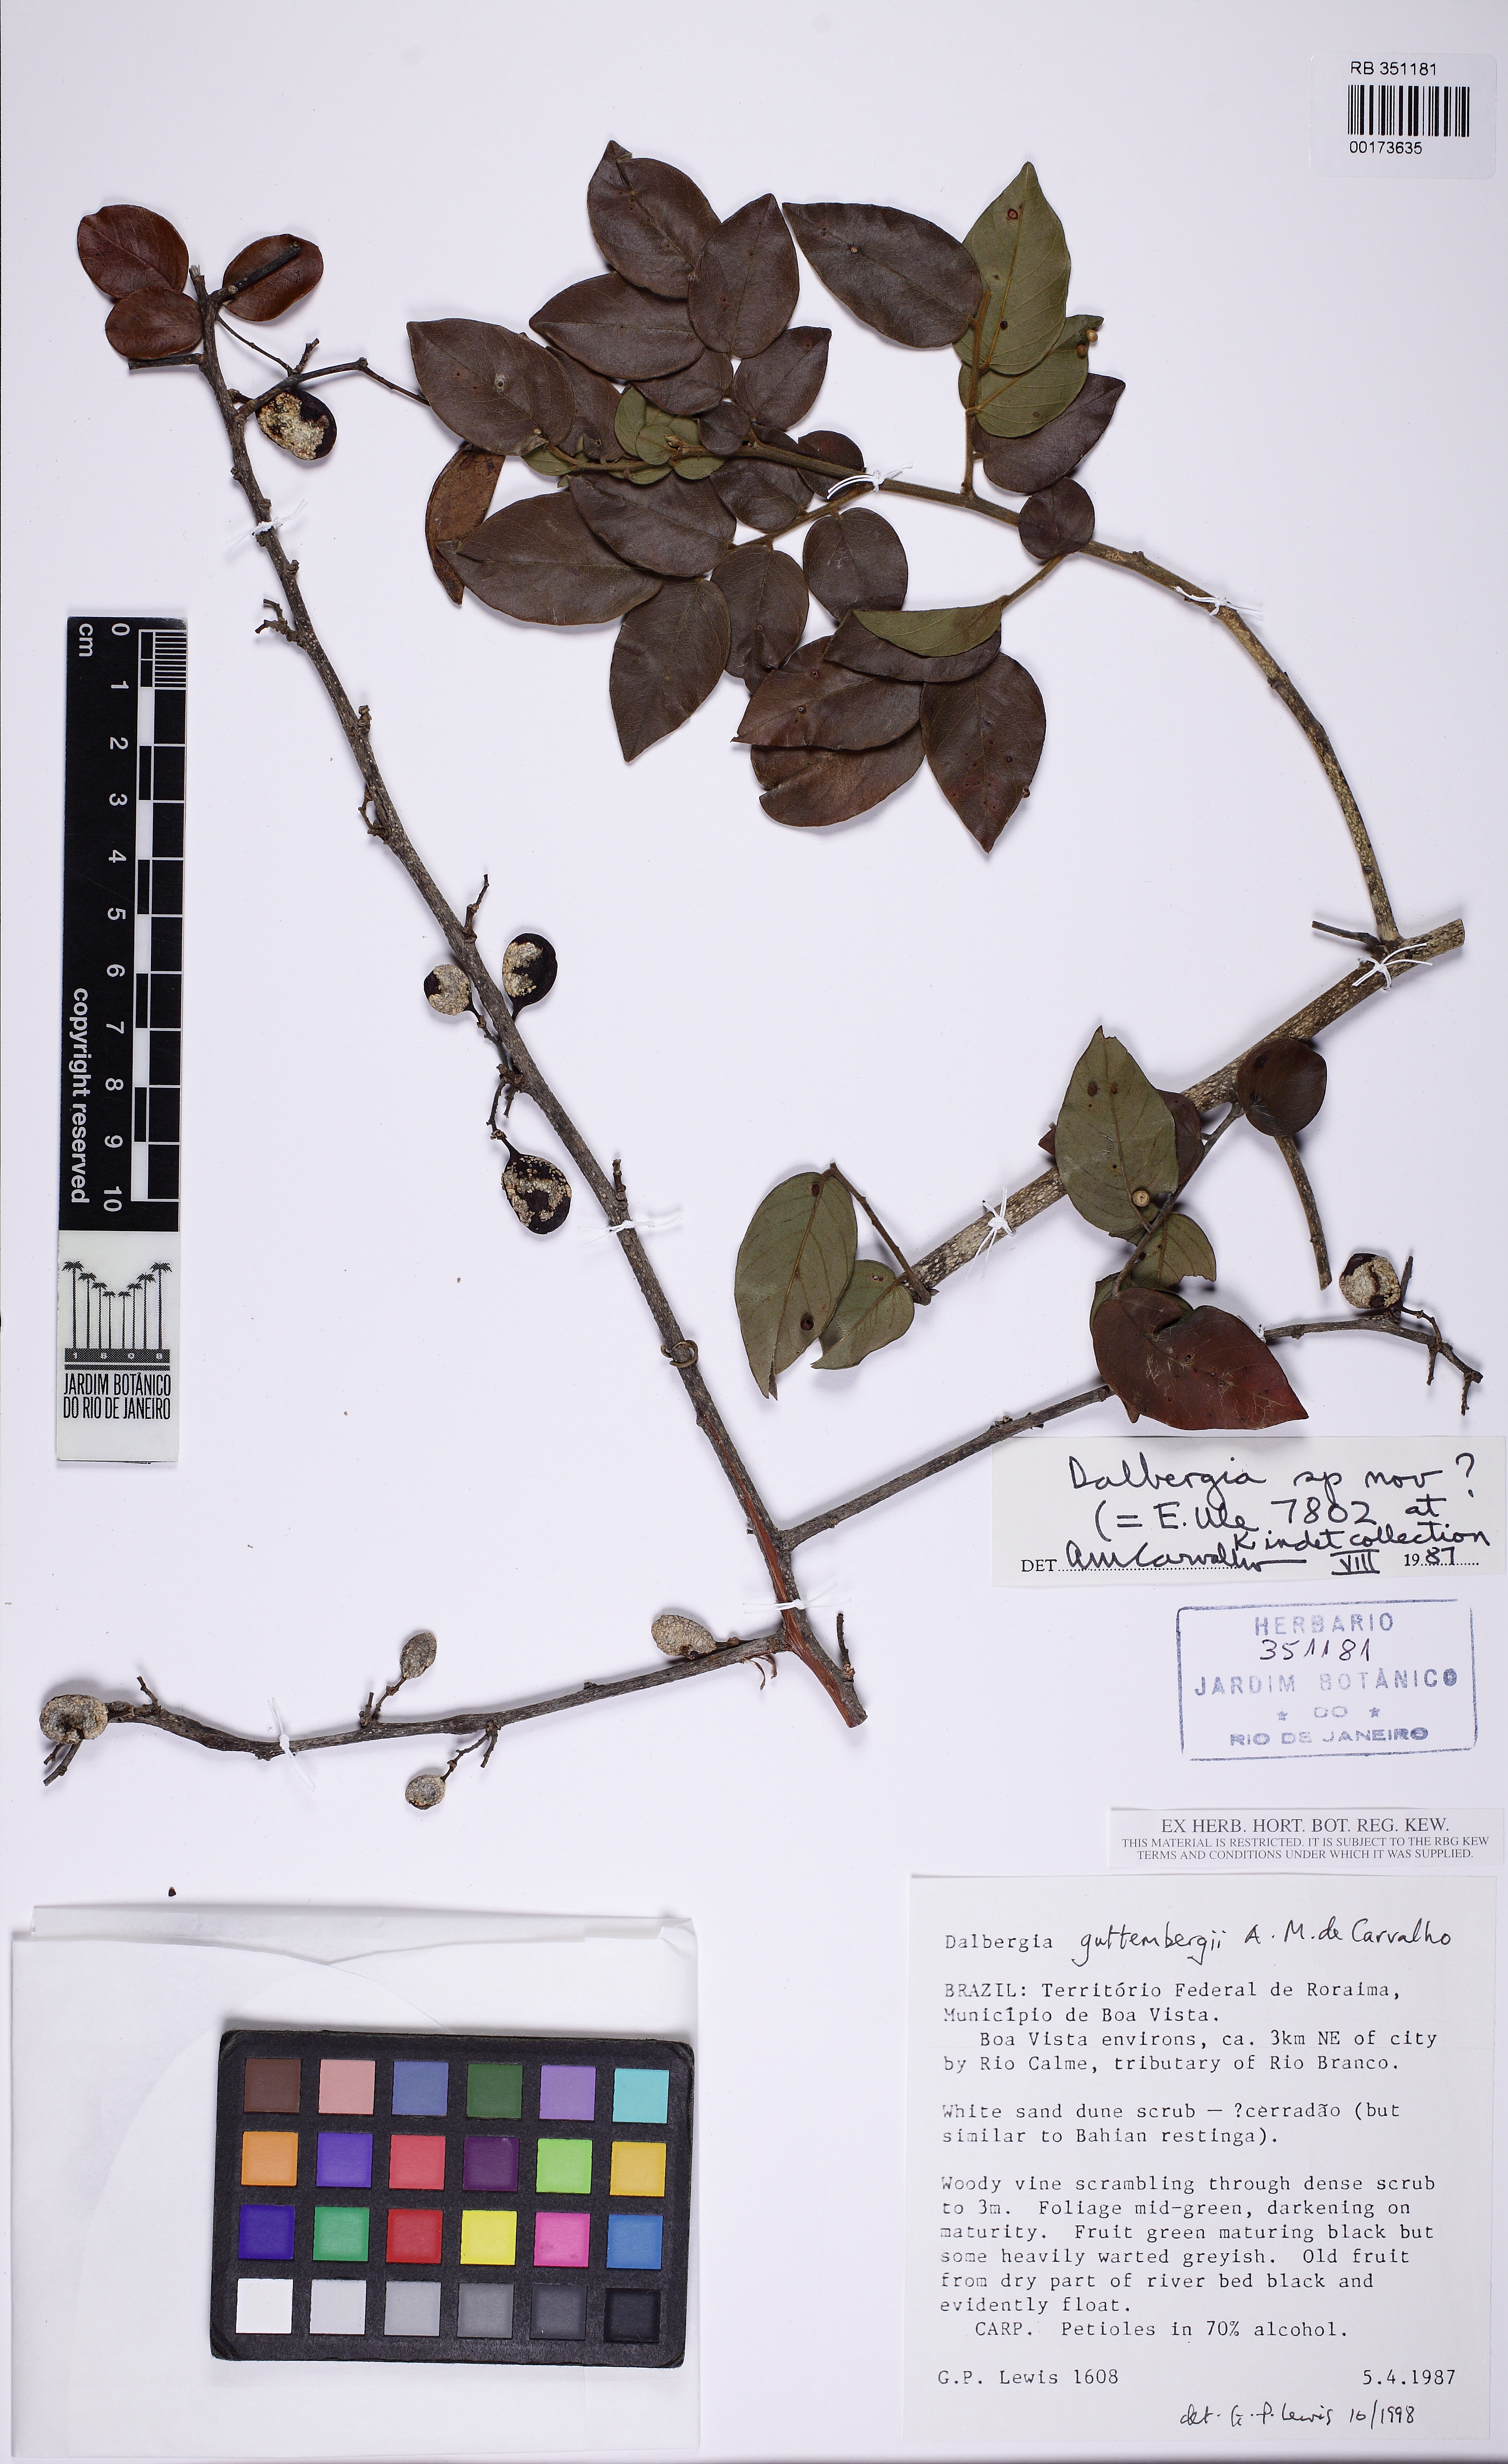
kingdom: Plantae
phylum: Tracheophyta
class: Magnoliopsida
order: Fabales
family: Fabaceae
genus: Dalbergia
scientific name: Dalbergia
